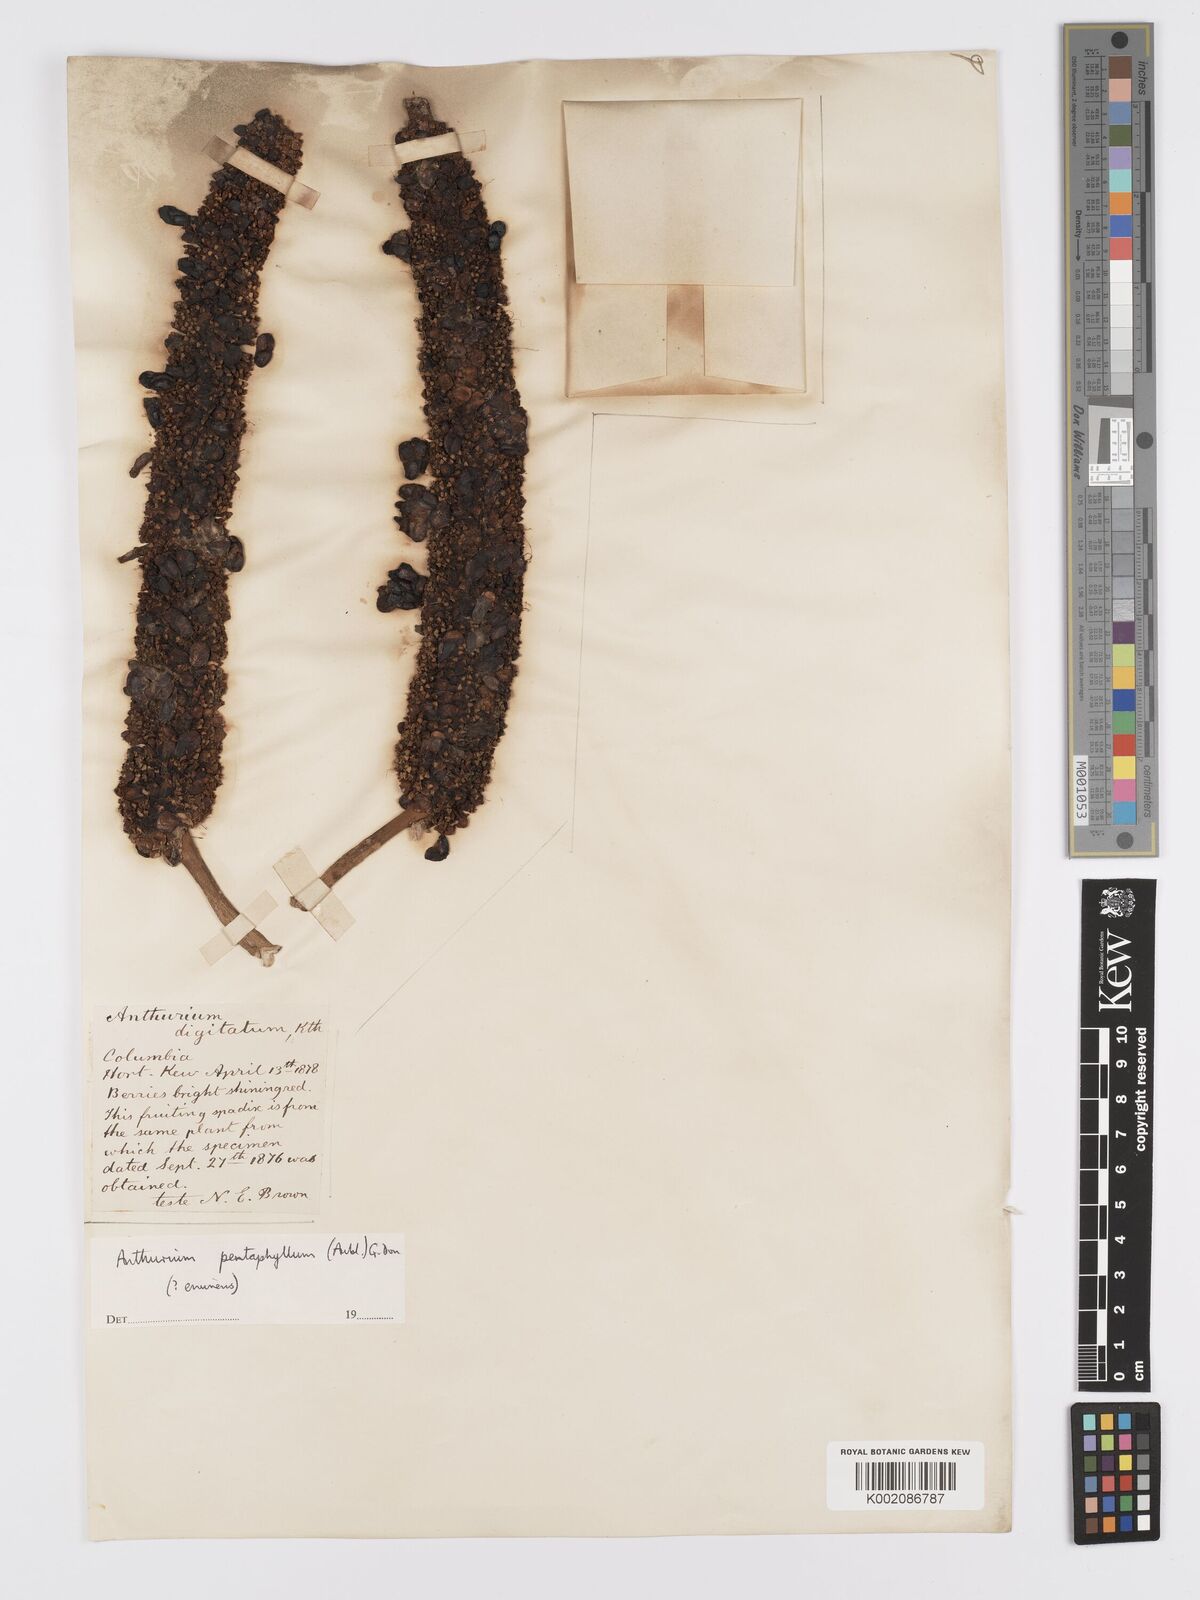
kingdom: Plantae
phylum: Tracheophyta
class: Liliopsida
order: Alismatales
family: Araceae
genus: Anthurium
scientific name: Anthurium pentaphyllum
